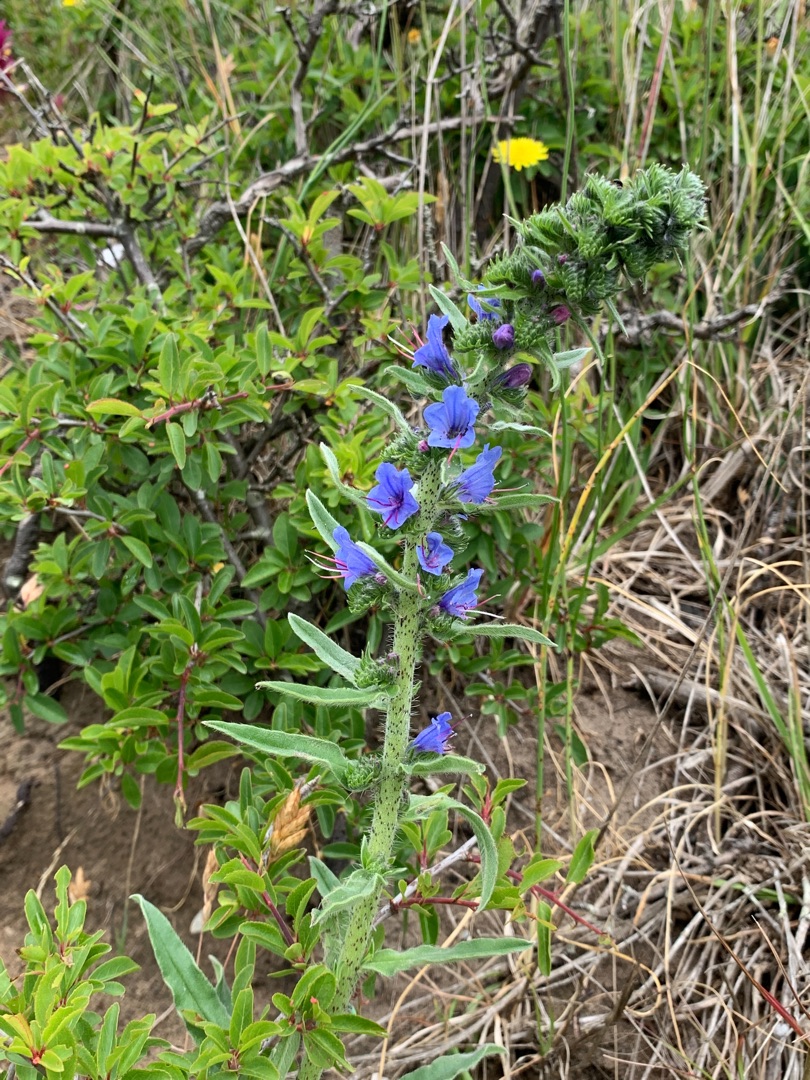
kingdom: Plantae
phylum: Tracheophyta
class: Magnoliopsida
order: Boraginales
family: Boraginaceae
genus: Echium
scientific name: Echium vulgare
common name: Slangehoved
